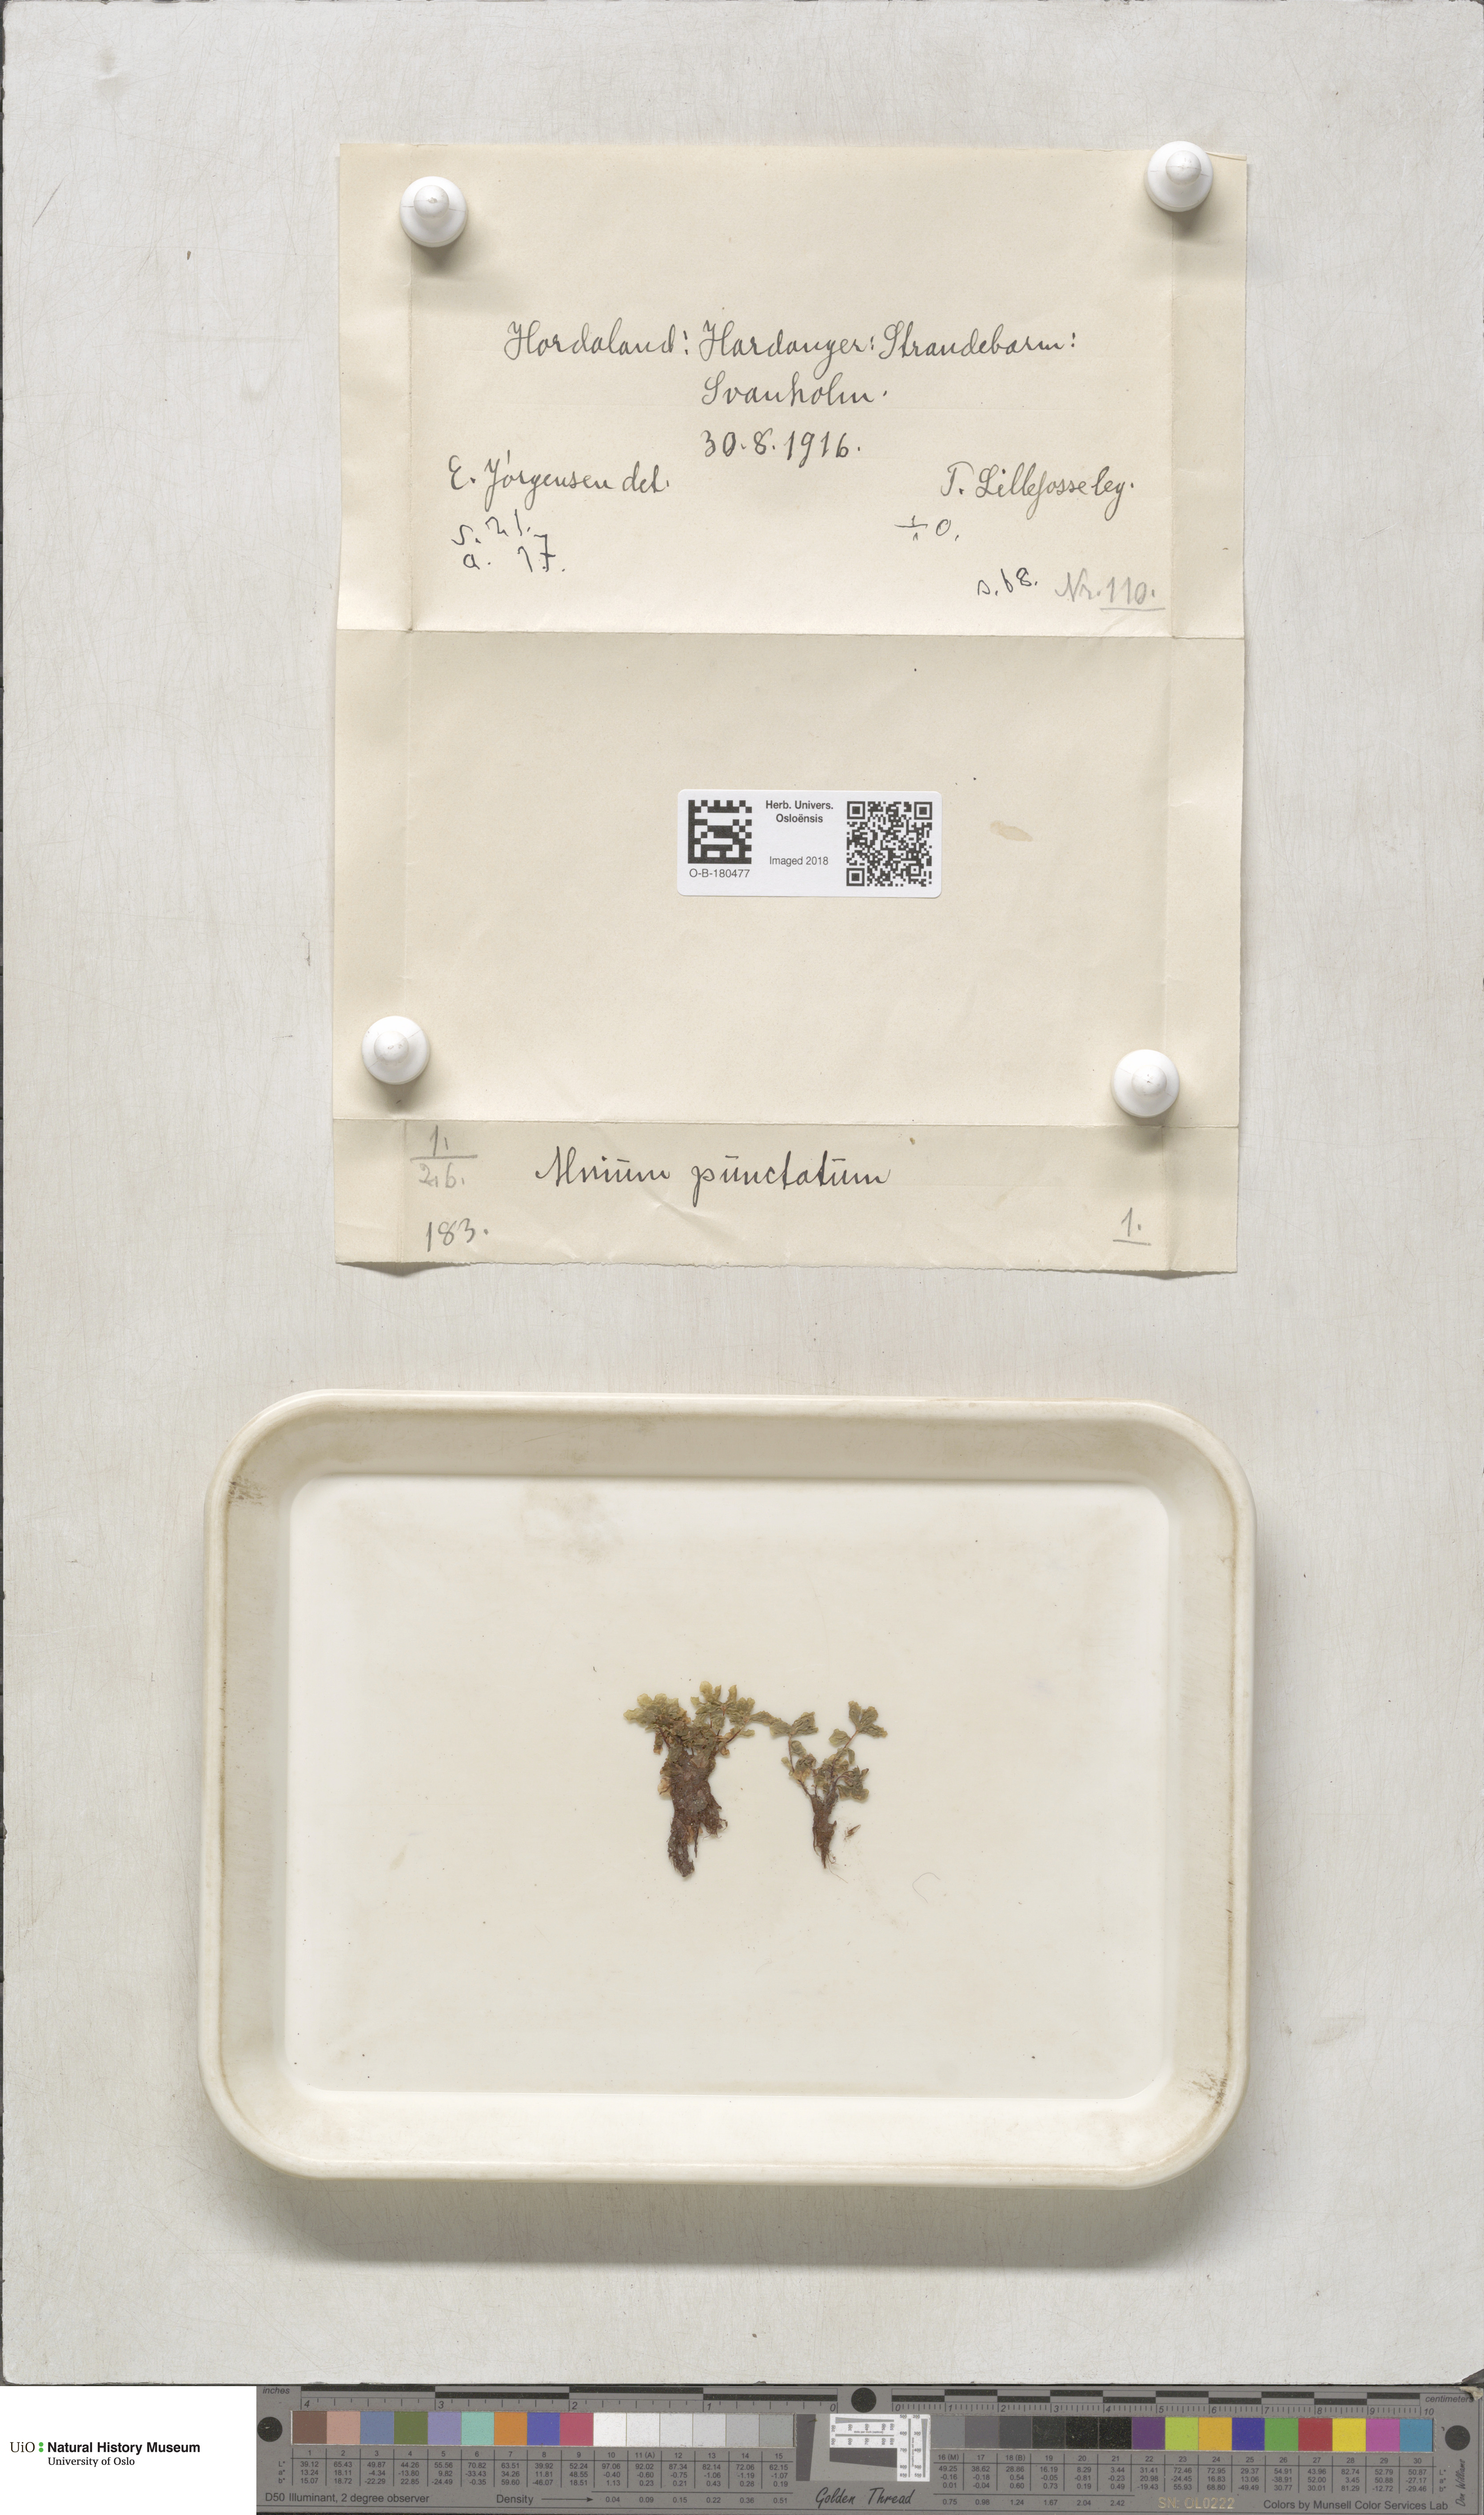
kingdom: Plantae
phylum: Bryophyta
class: Bryopsida
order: Bryales
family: Mniaceae
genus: Rhizomnium
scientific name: Rhizomnium punctatum
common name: Dotted leafy moss
